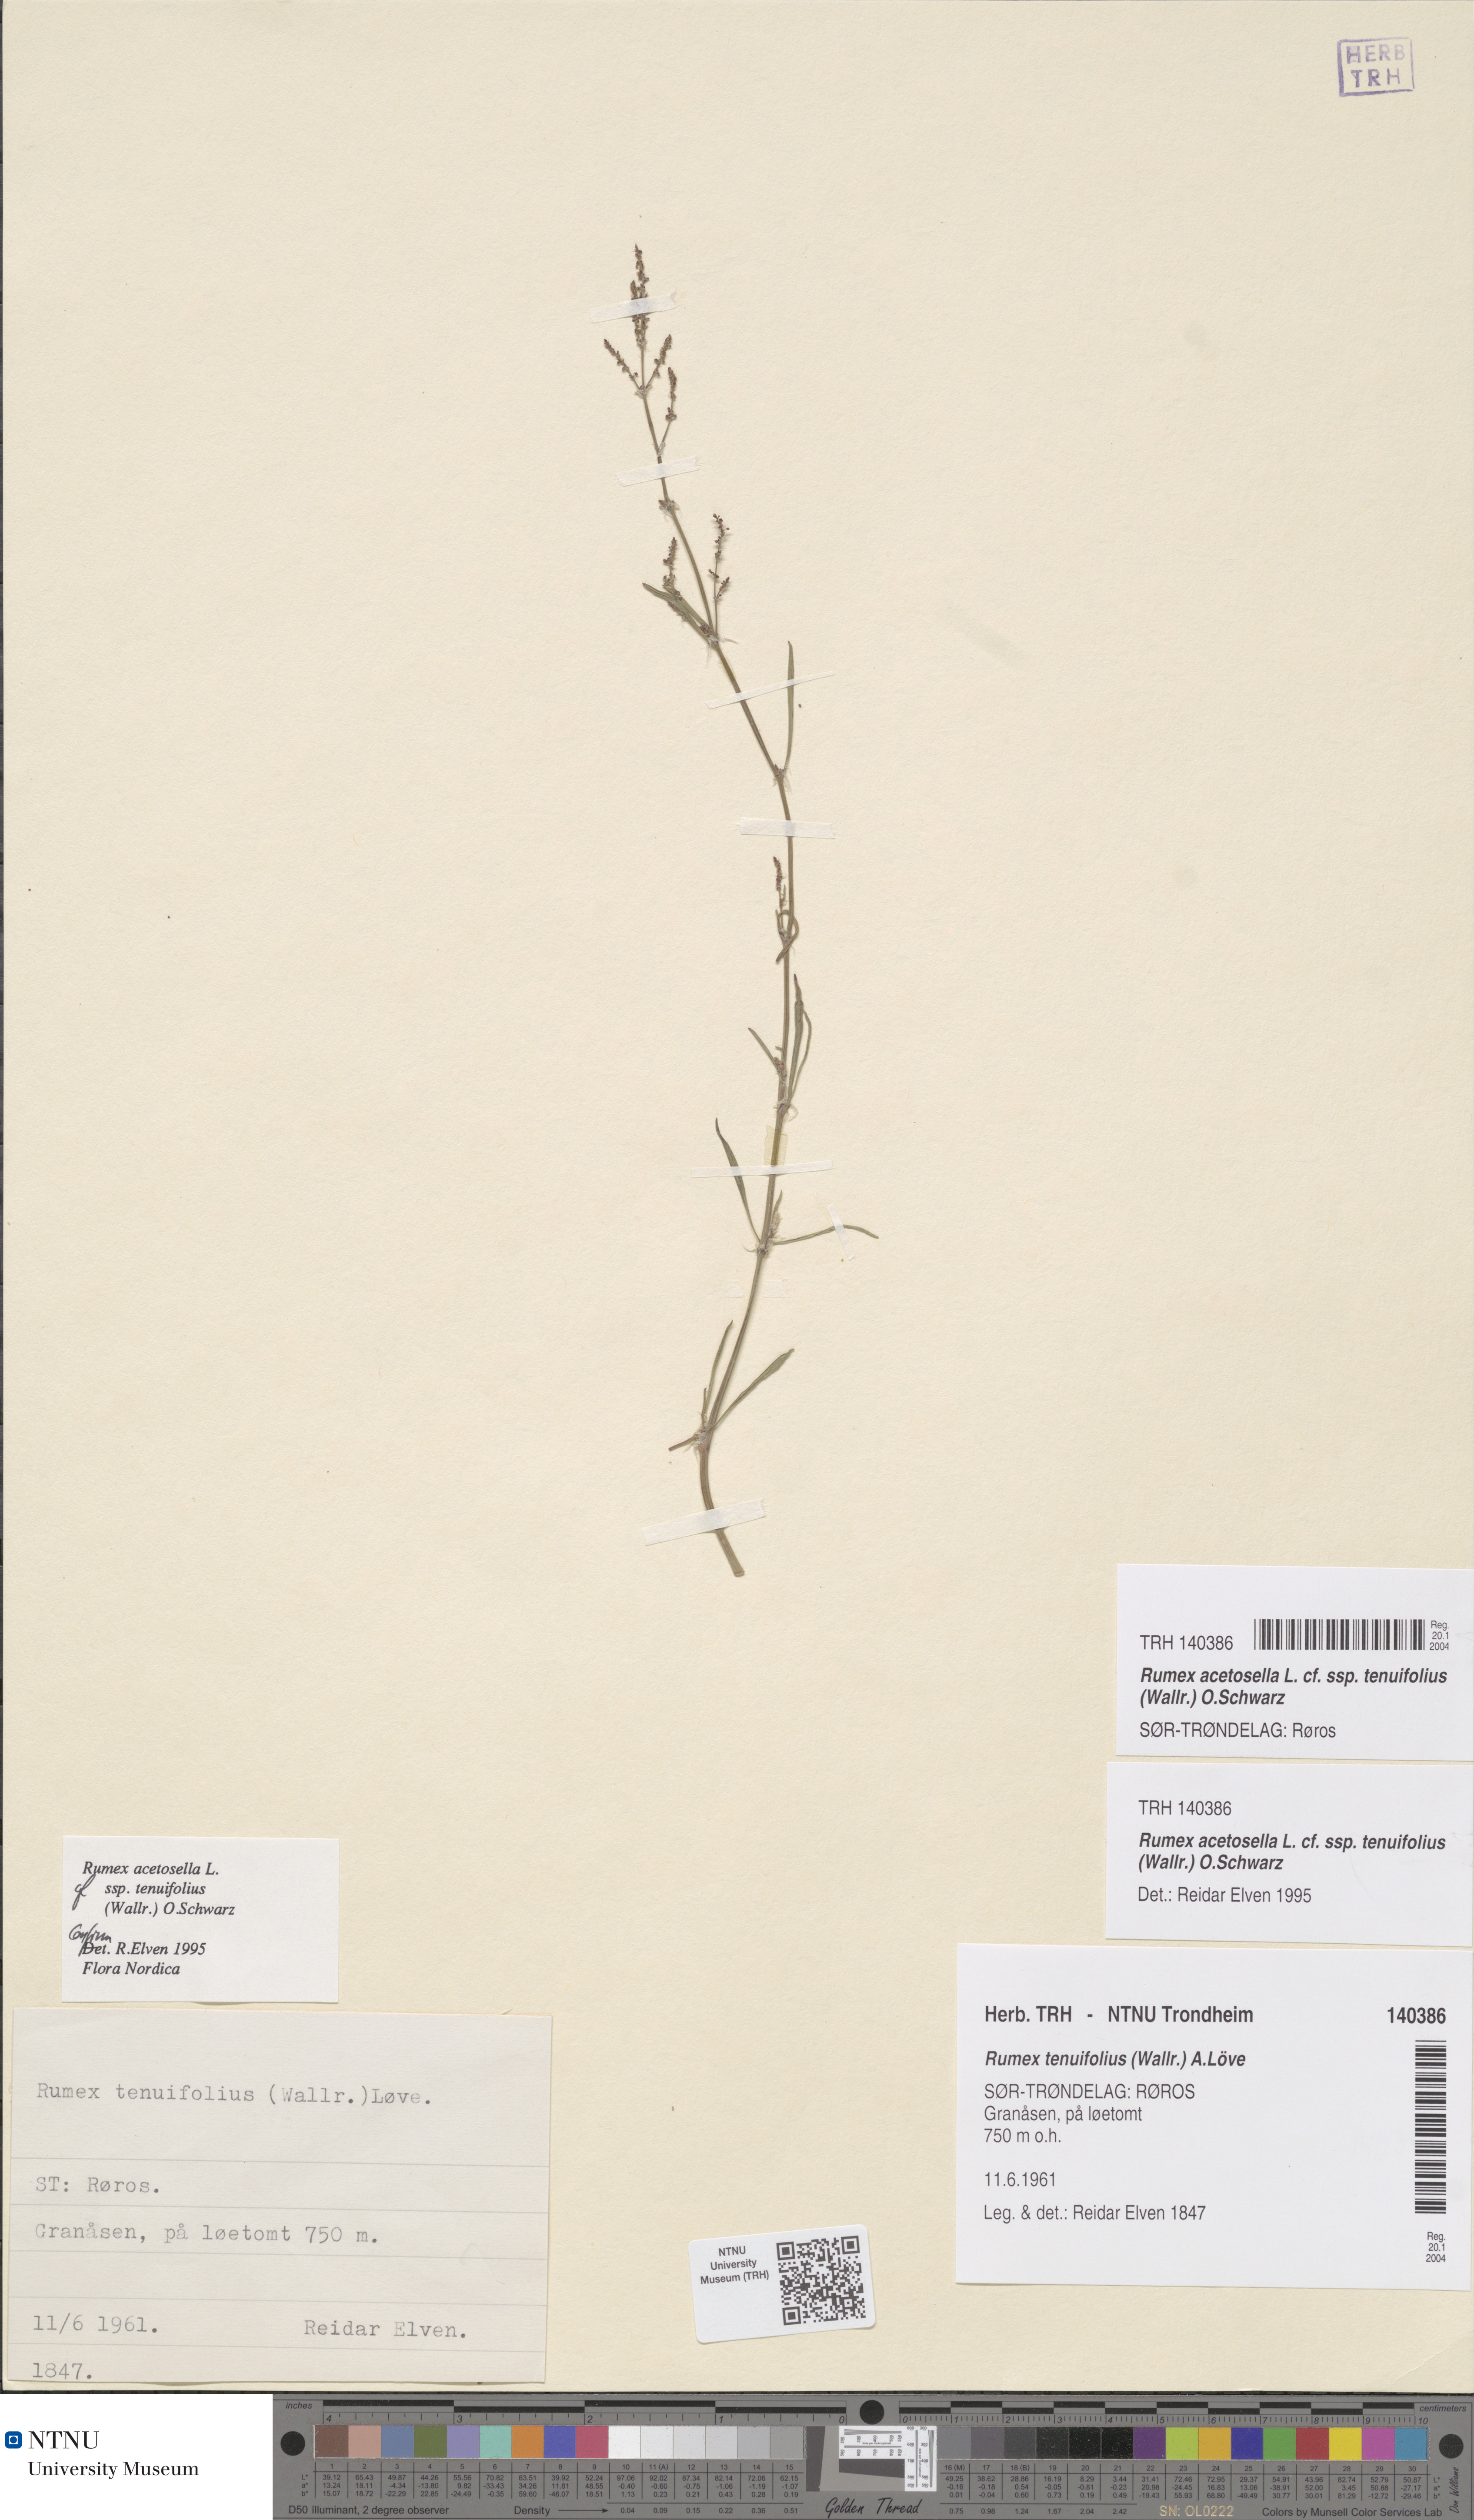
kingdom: Plantae
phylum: Tracheophyta
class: Magnoliopsida
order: Caryophyllales
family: Polygonaceae
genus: Rumex
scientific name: Rumex acetosella
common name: Common sheep sorrel
